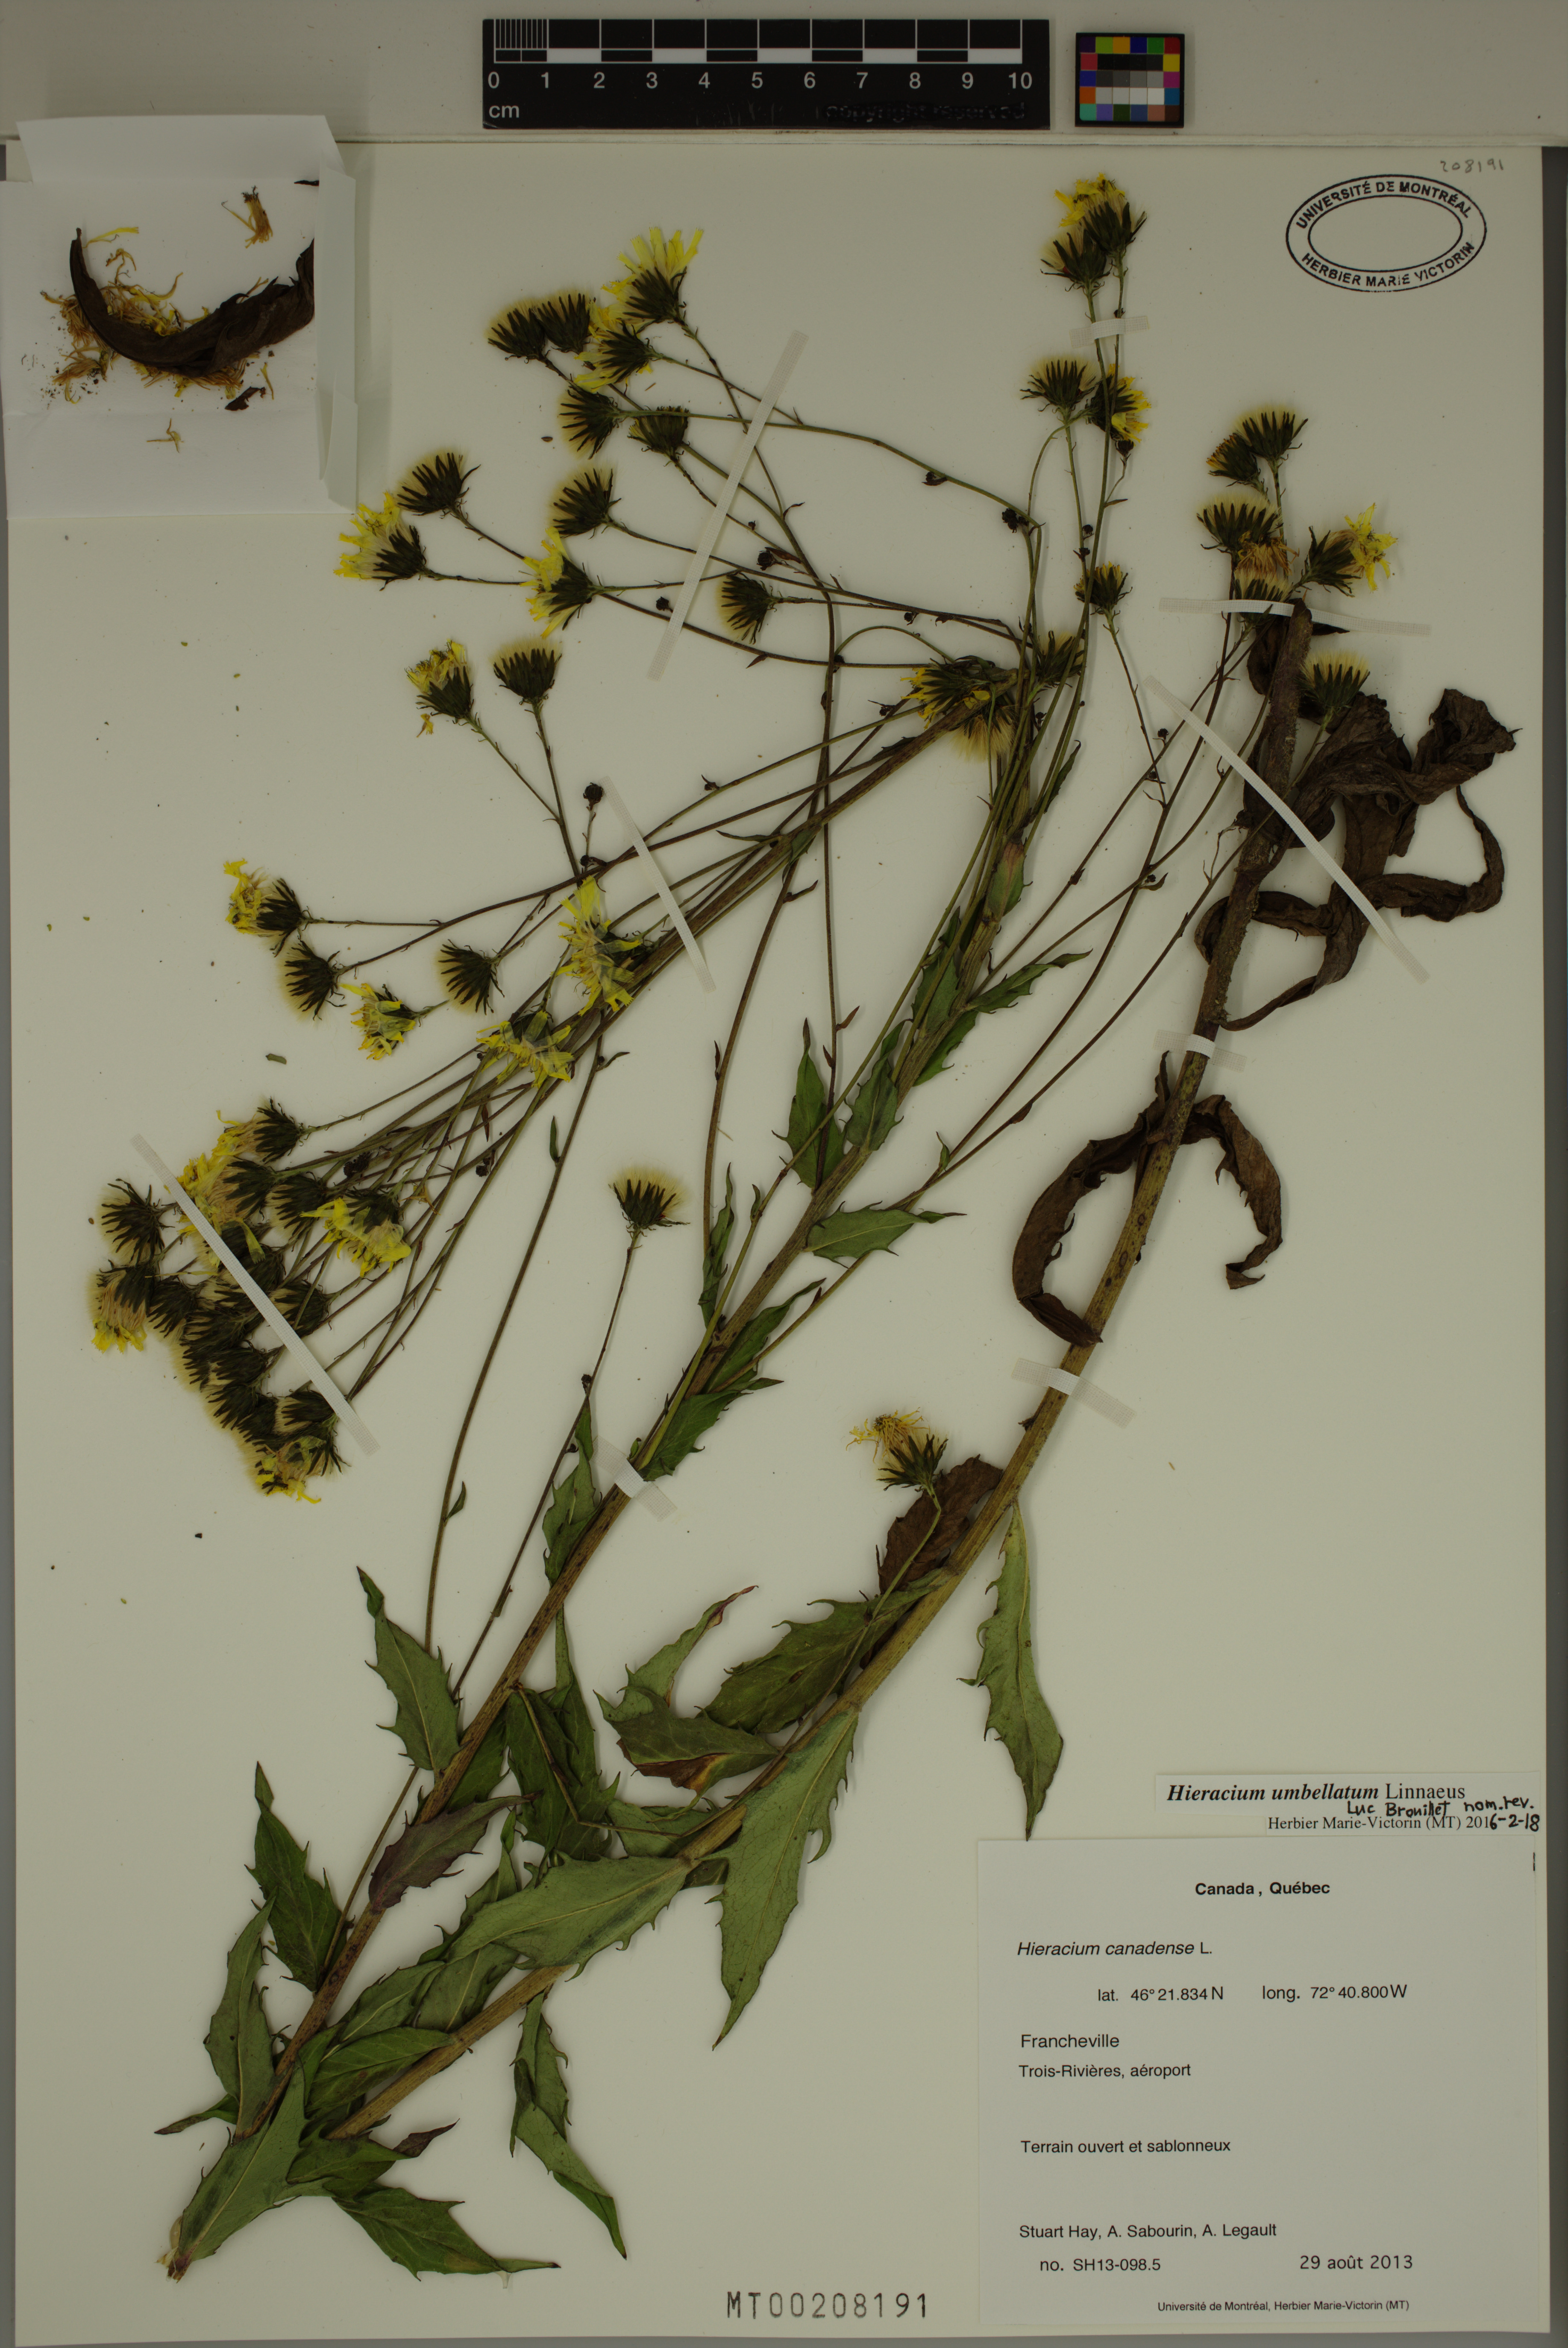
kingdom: Plantae
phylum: Tracheophyta
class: Magnoliopsida
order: Asterales
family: Asteraceae
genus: Hieracium
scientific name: Hieracium umbellatum
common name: Northern hawkweed
